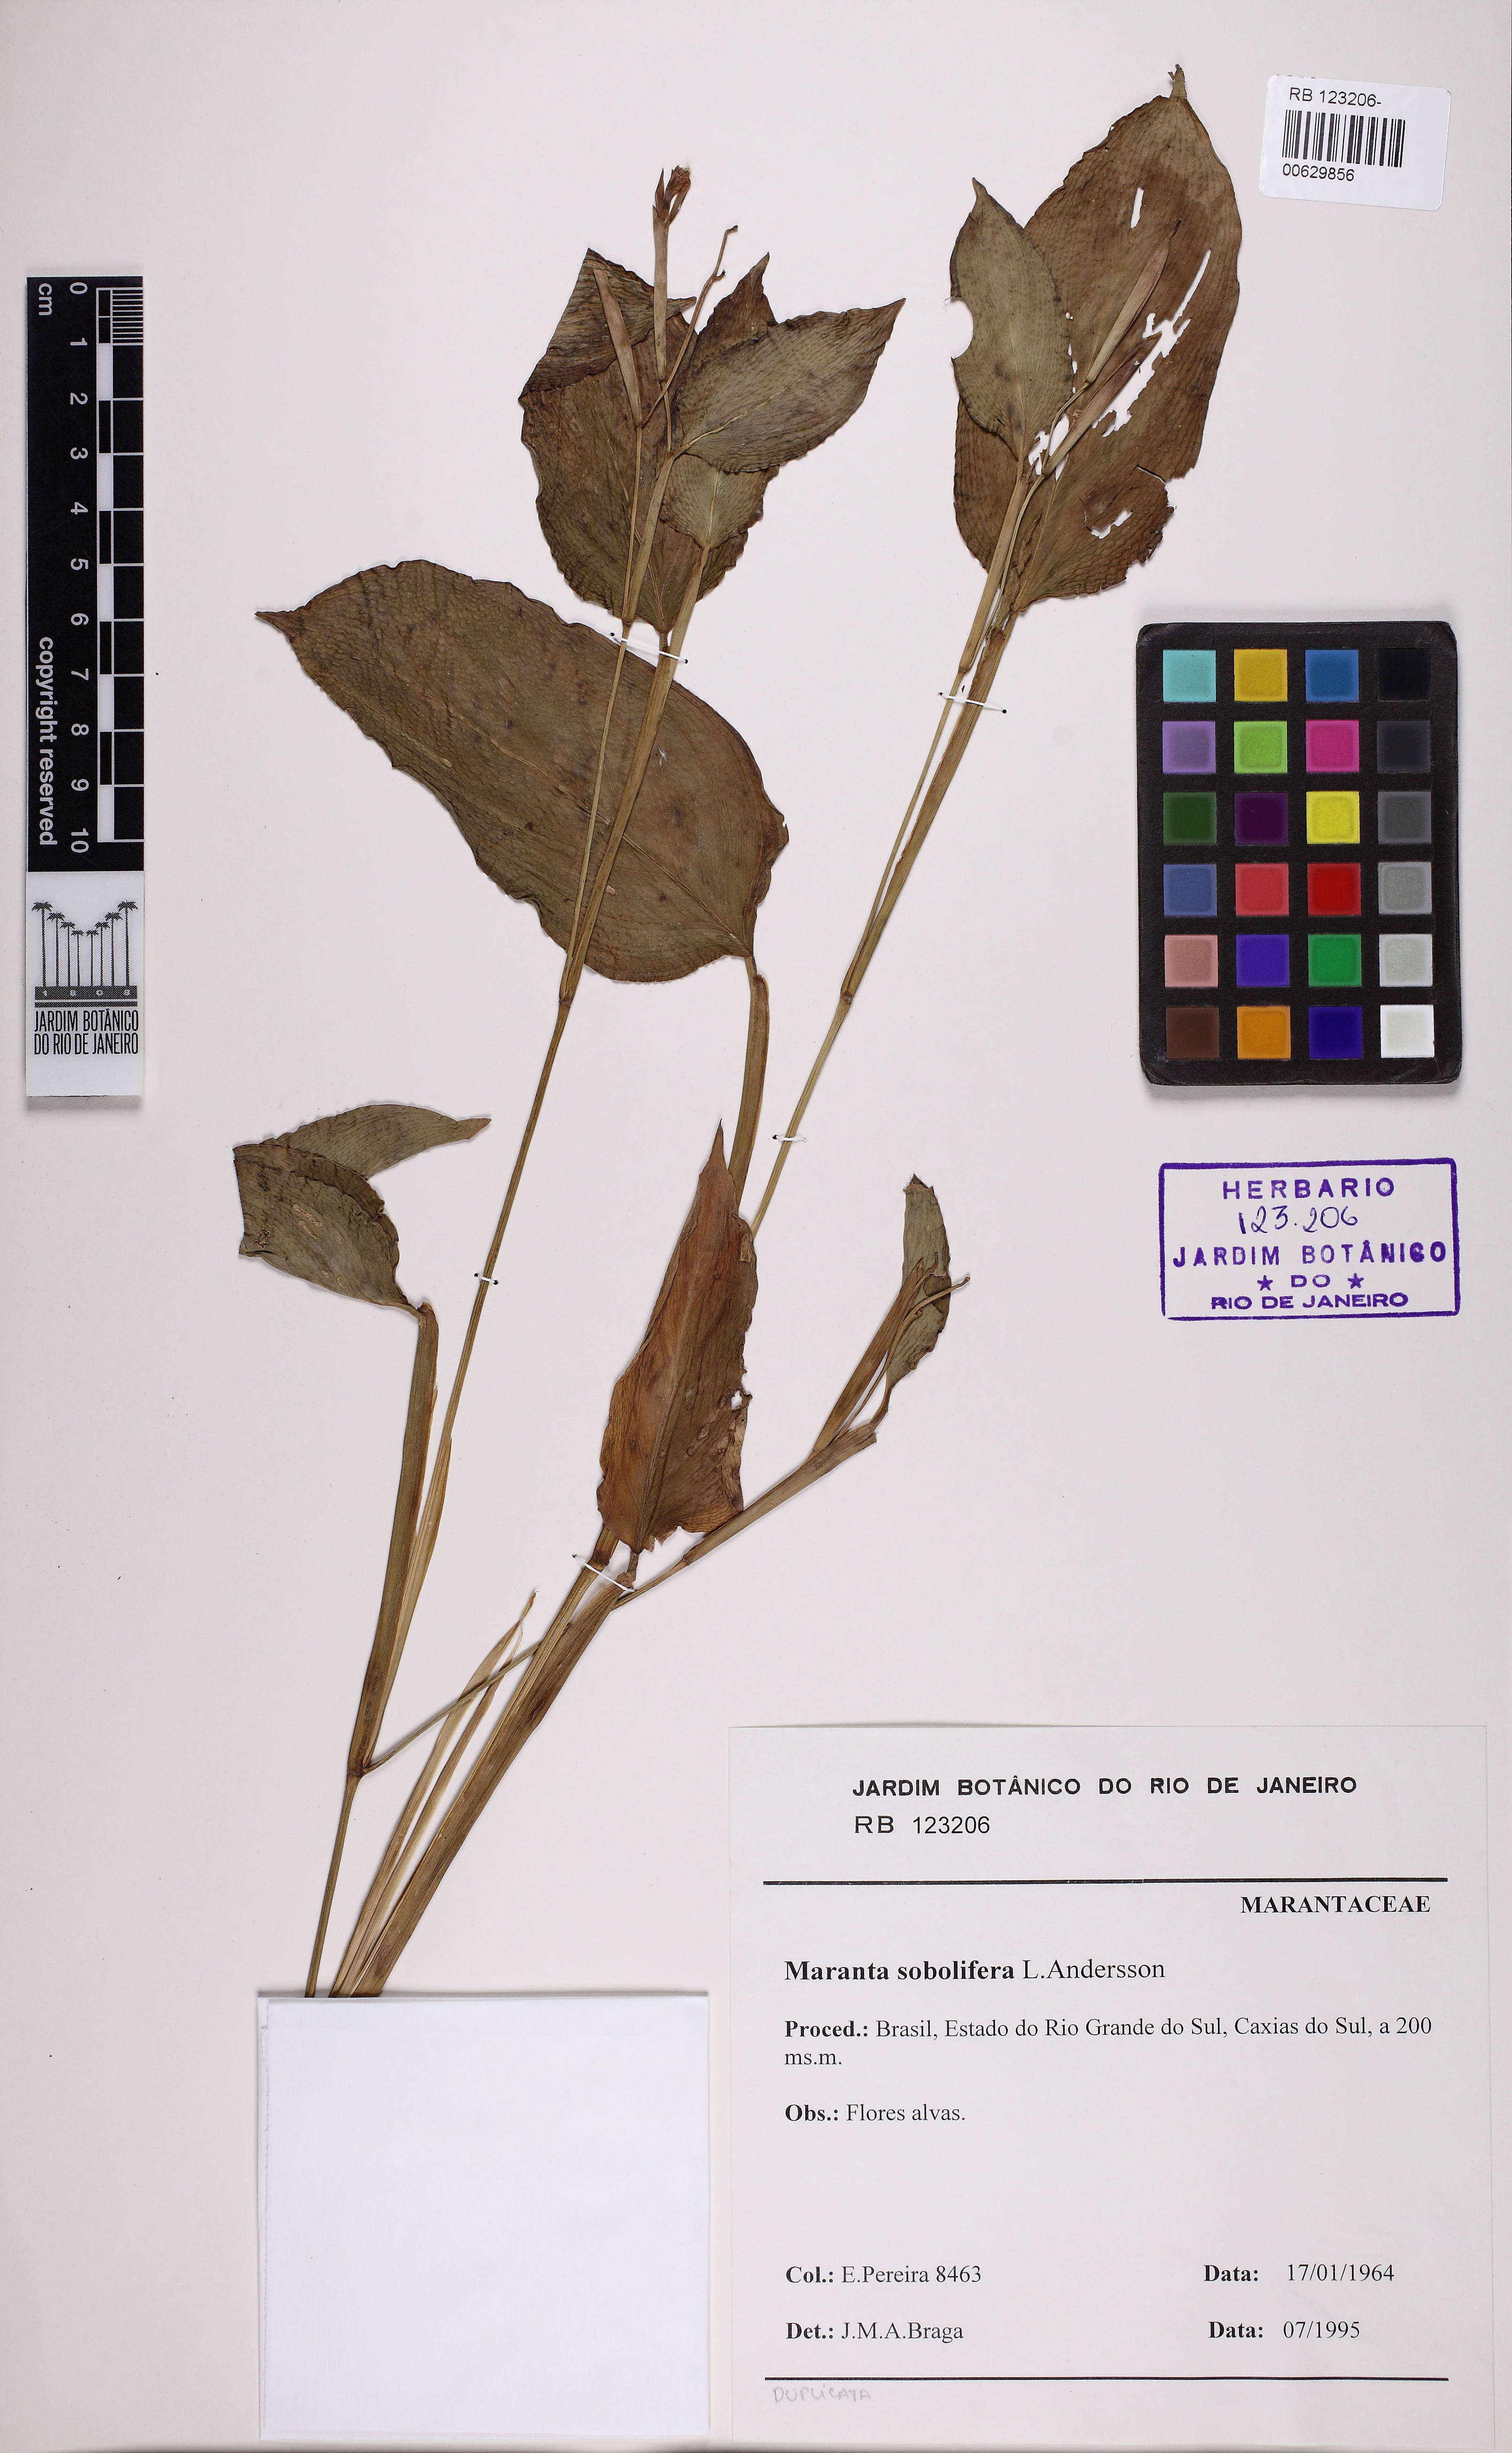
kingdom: Plantae
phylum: Tracheophyta
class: Liliopsida
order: Zingiberales
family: Marantaceae
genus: Maranta
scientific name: Maranta sobolifera
